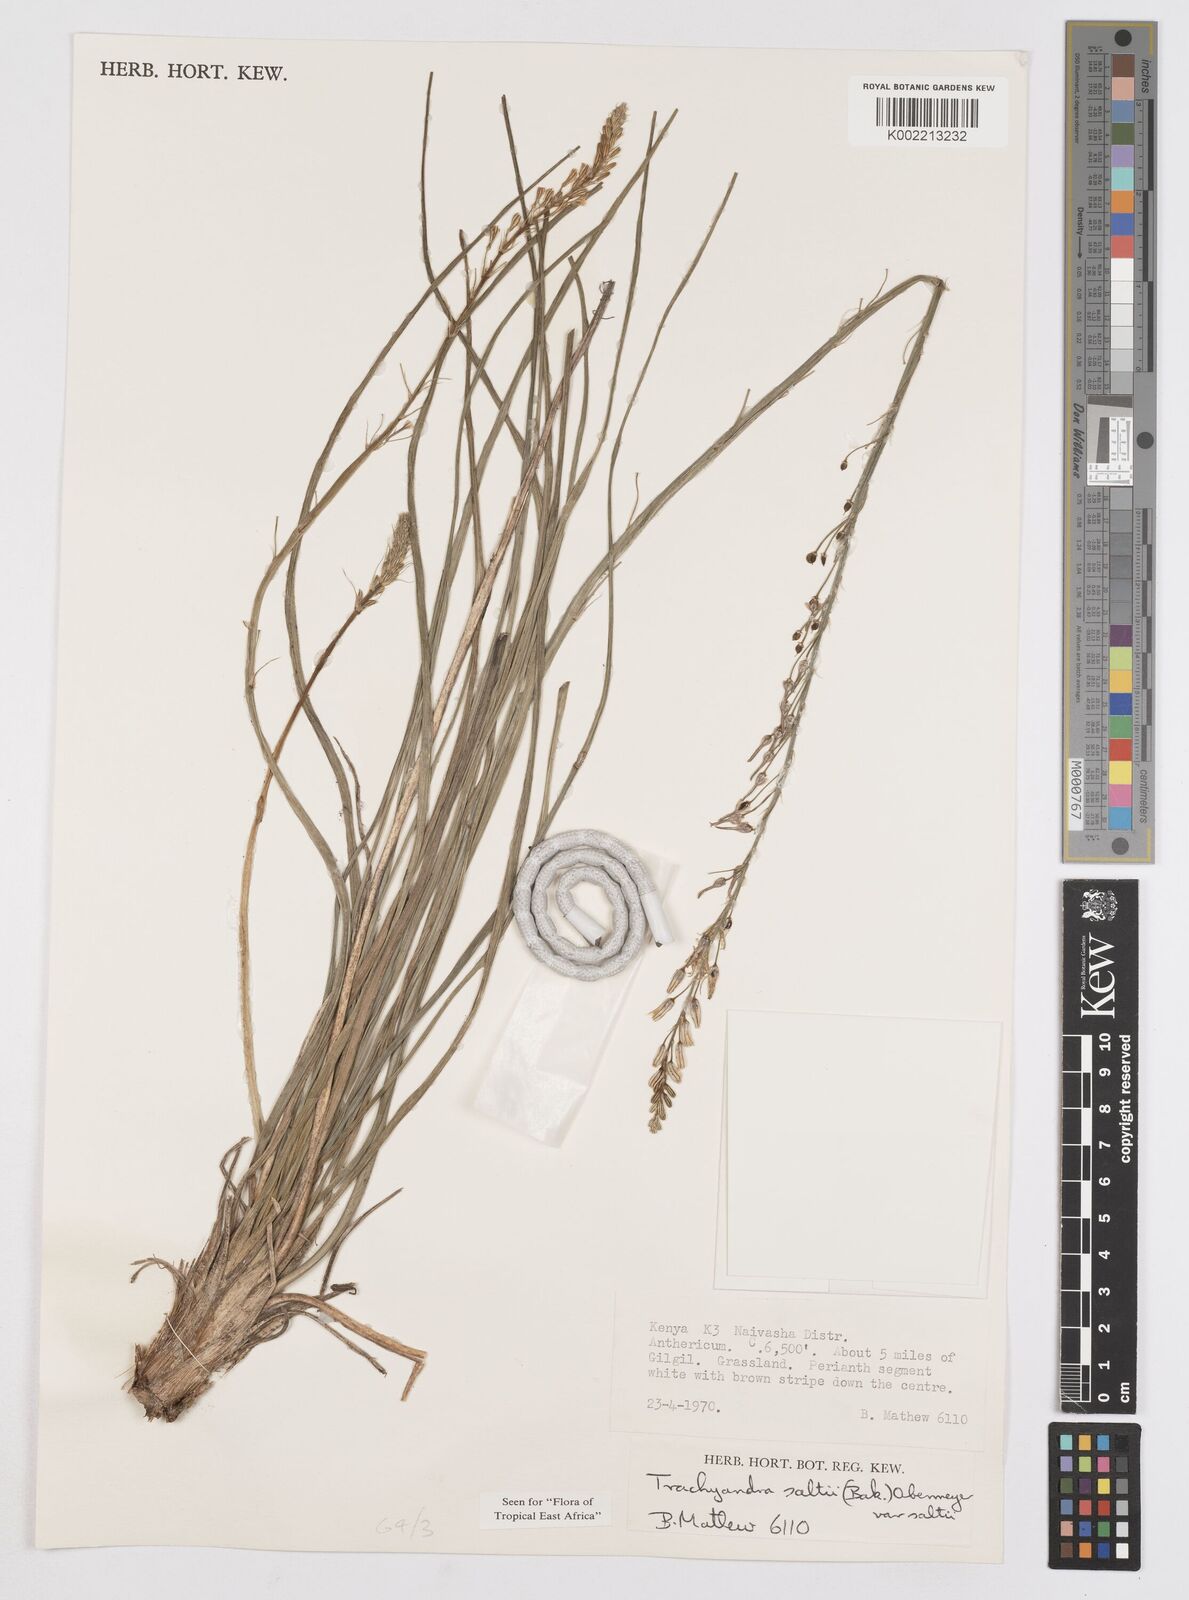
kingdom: Plantae
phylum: Tracheophyta
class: Liliopsida
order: Asparagales
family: Asphodelaceae
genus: Trachyandra
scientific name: Trachyandra saltii
